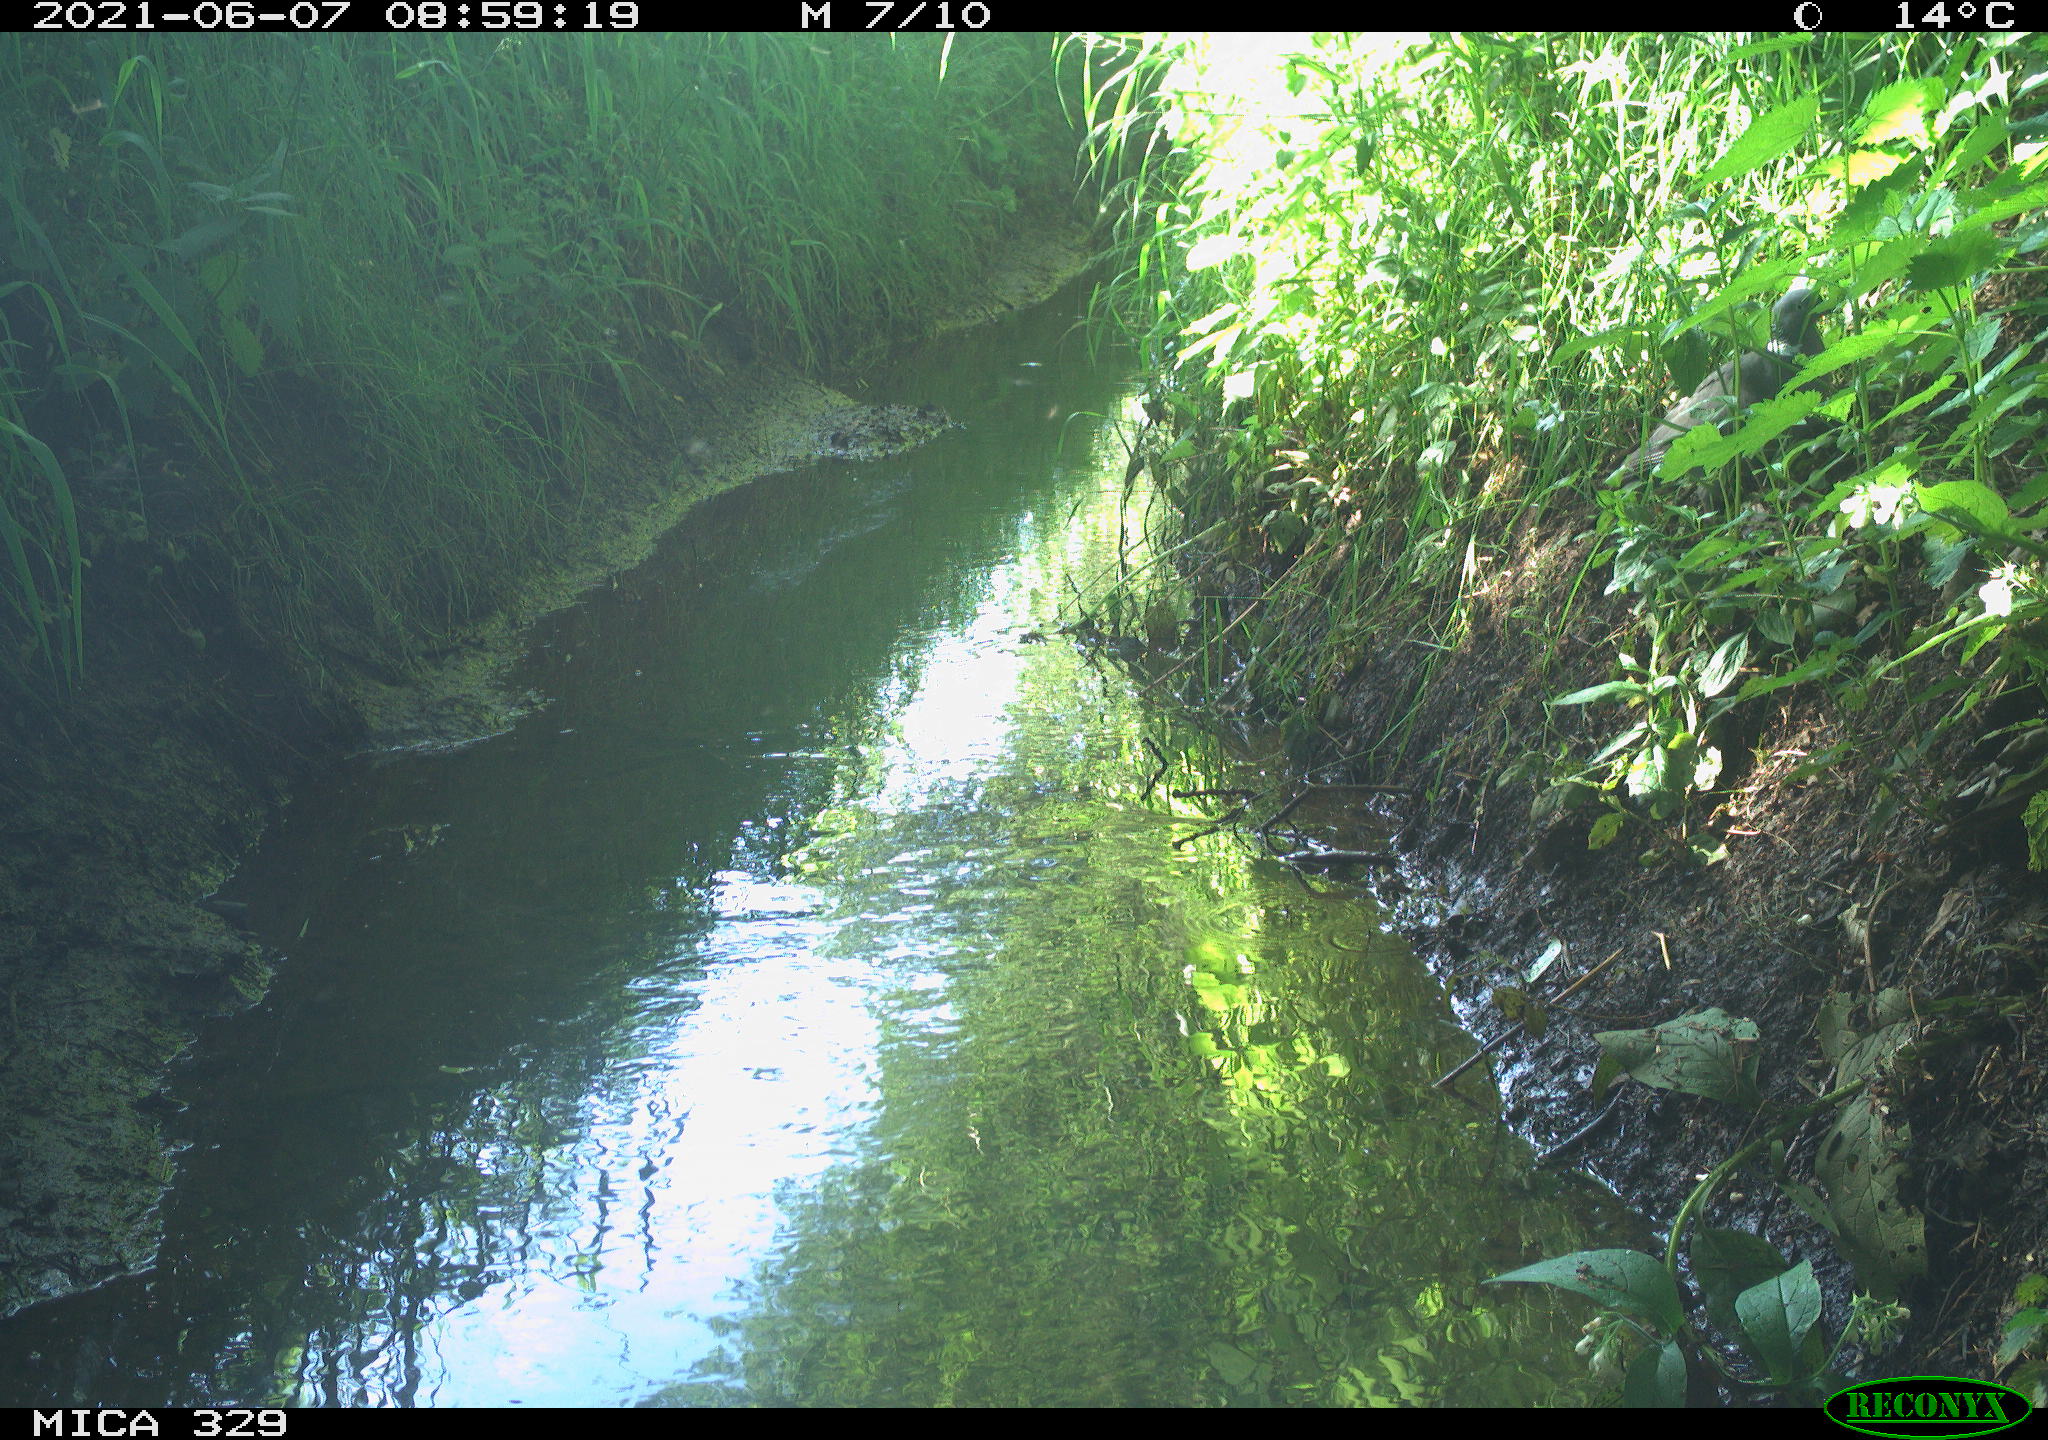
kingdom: Animalia
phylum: Chordata
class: Aves
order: Columbiformes
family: Columbidae
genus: Columba
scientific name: Columba palumbus
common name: Common wood pigeon
